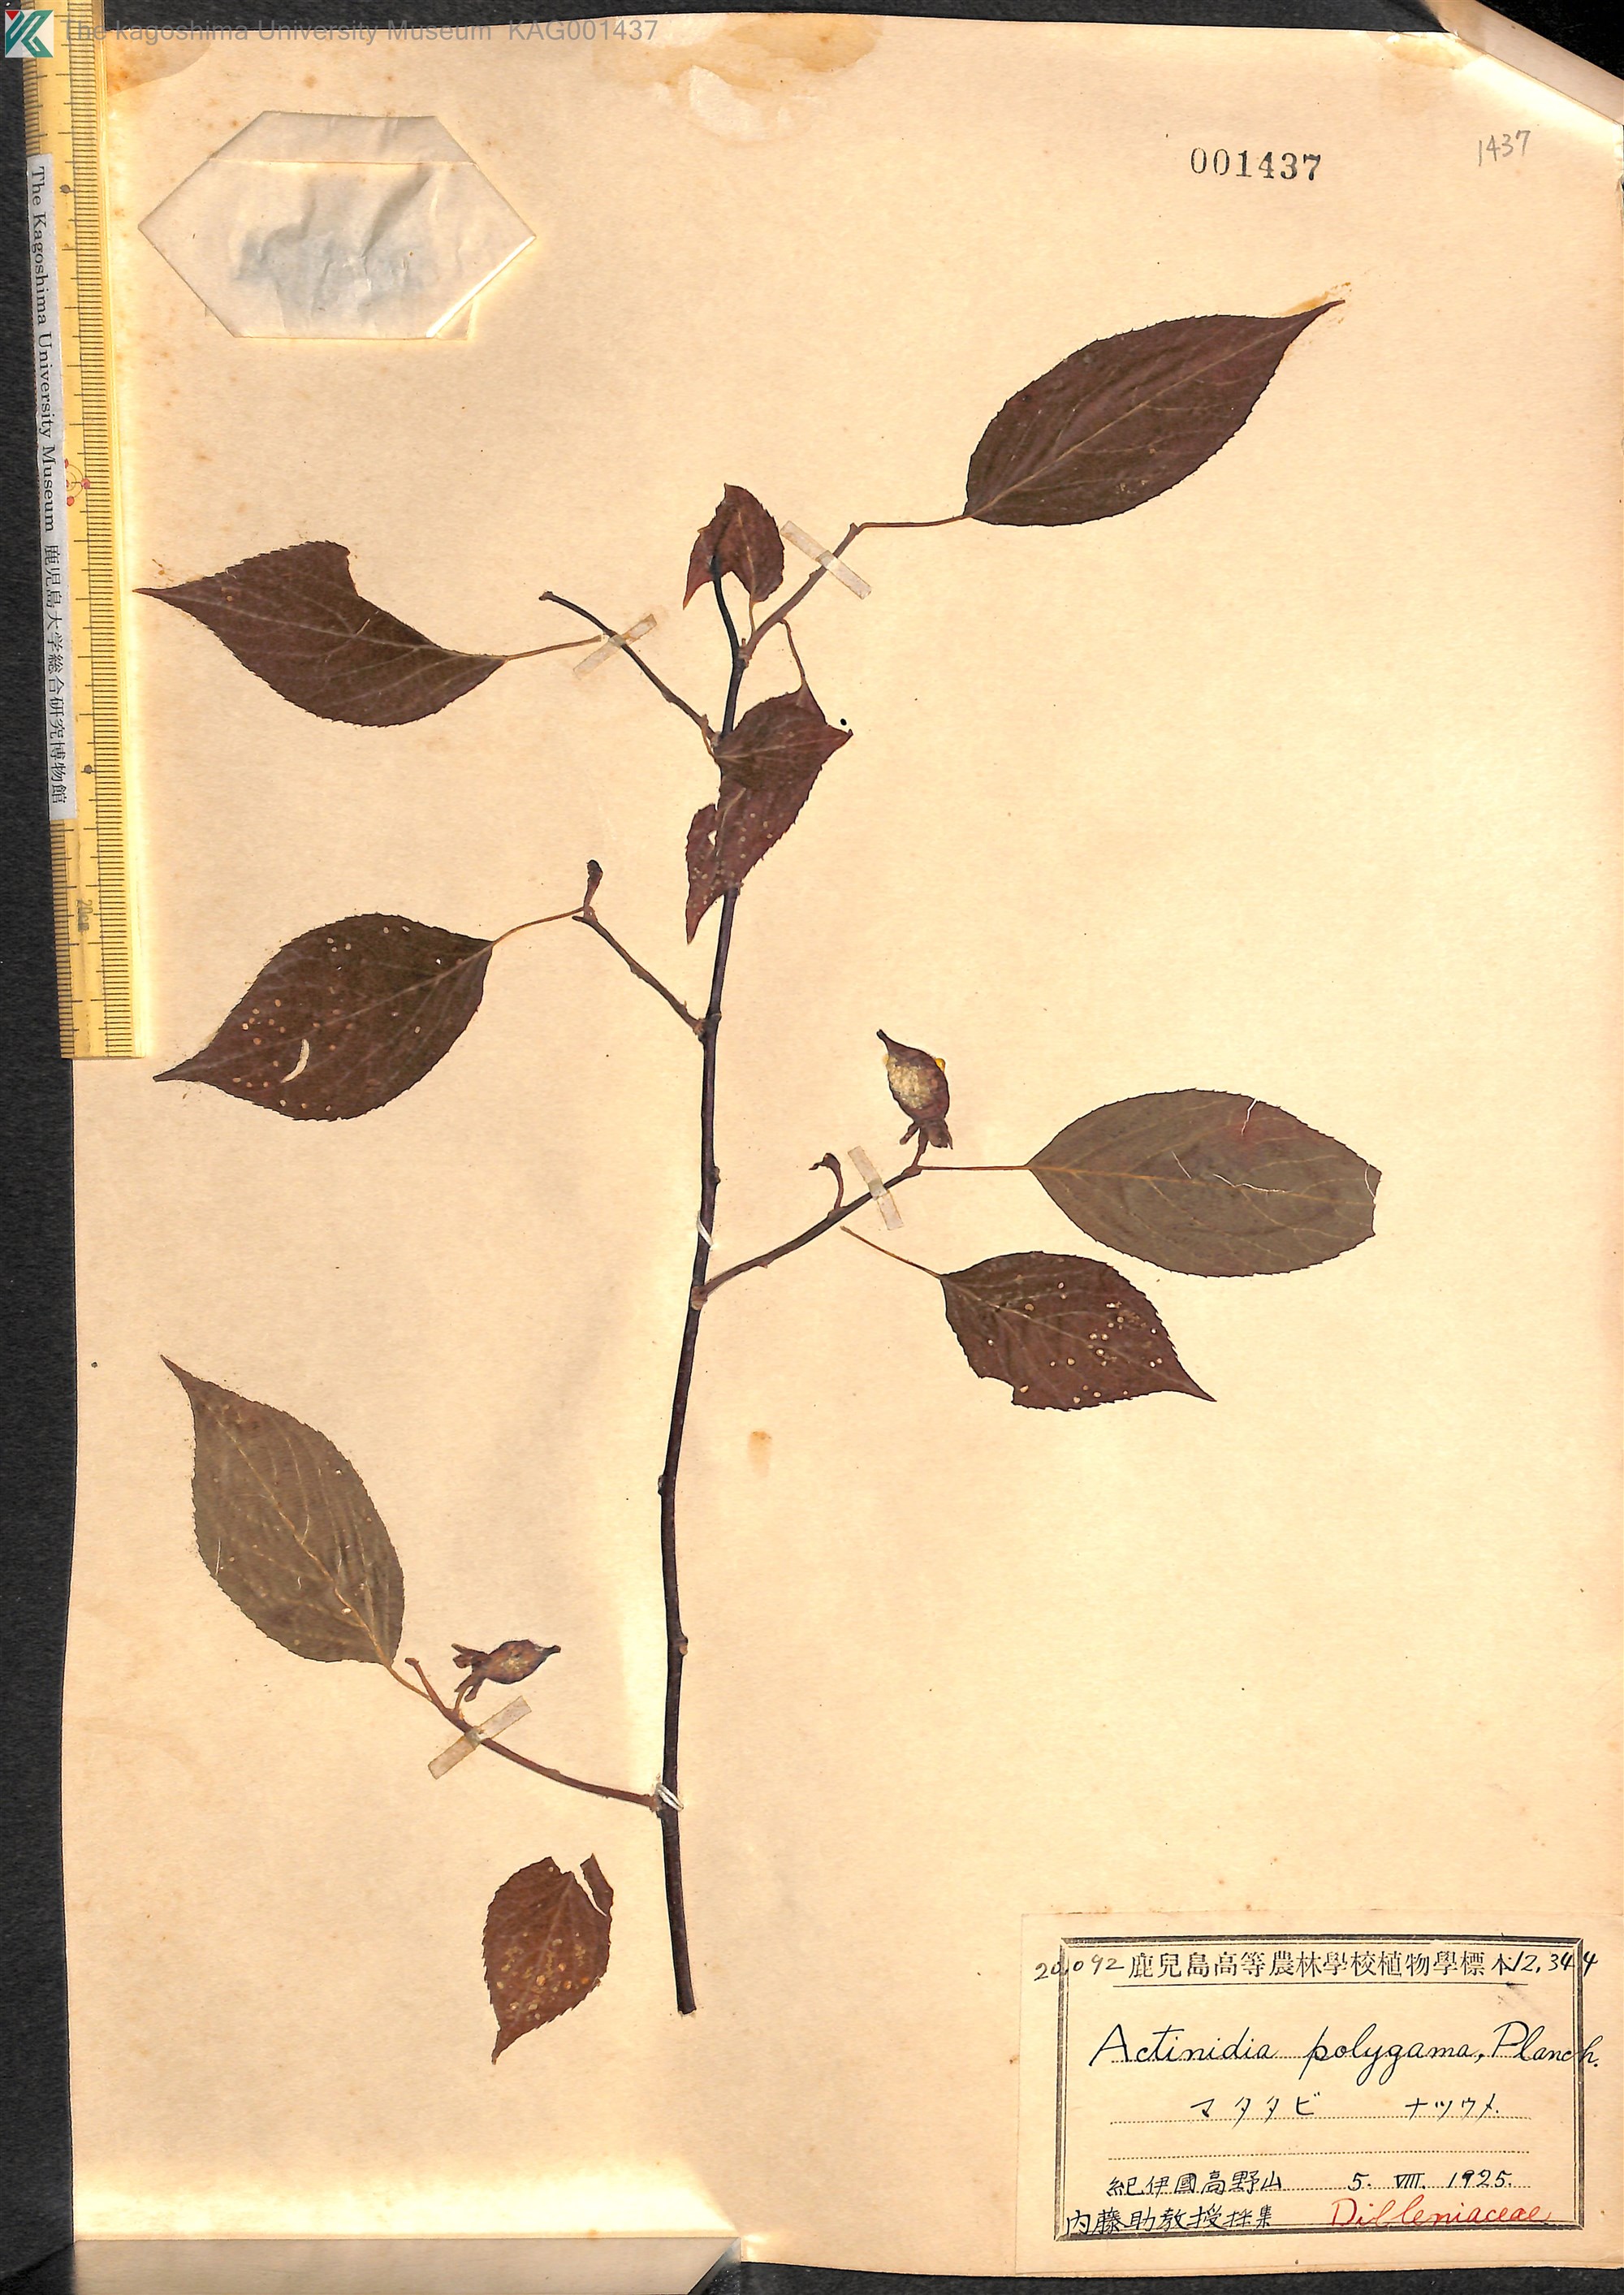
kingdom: Plantae
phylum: Tracheophyta
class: Magnoliopsida
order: Ericales
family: Actinidiaceae
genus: Actinidia
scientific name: Actinidia polygama
